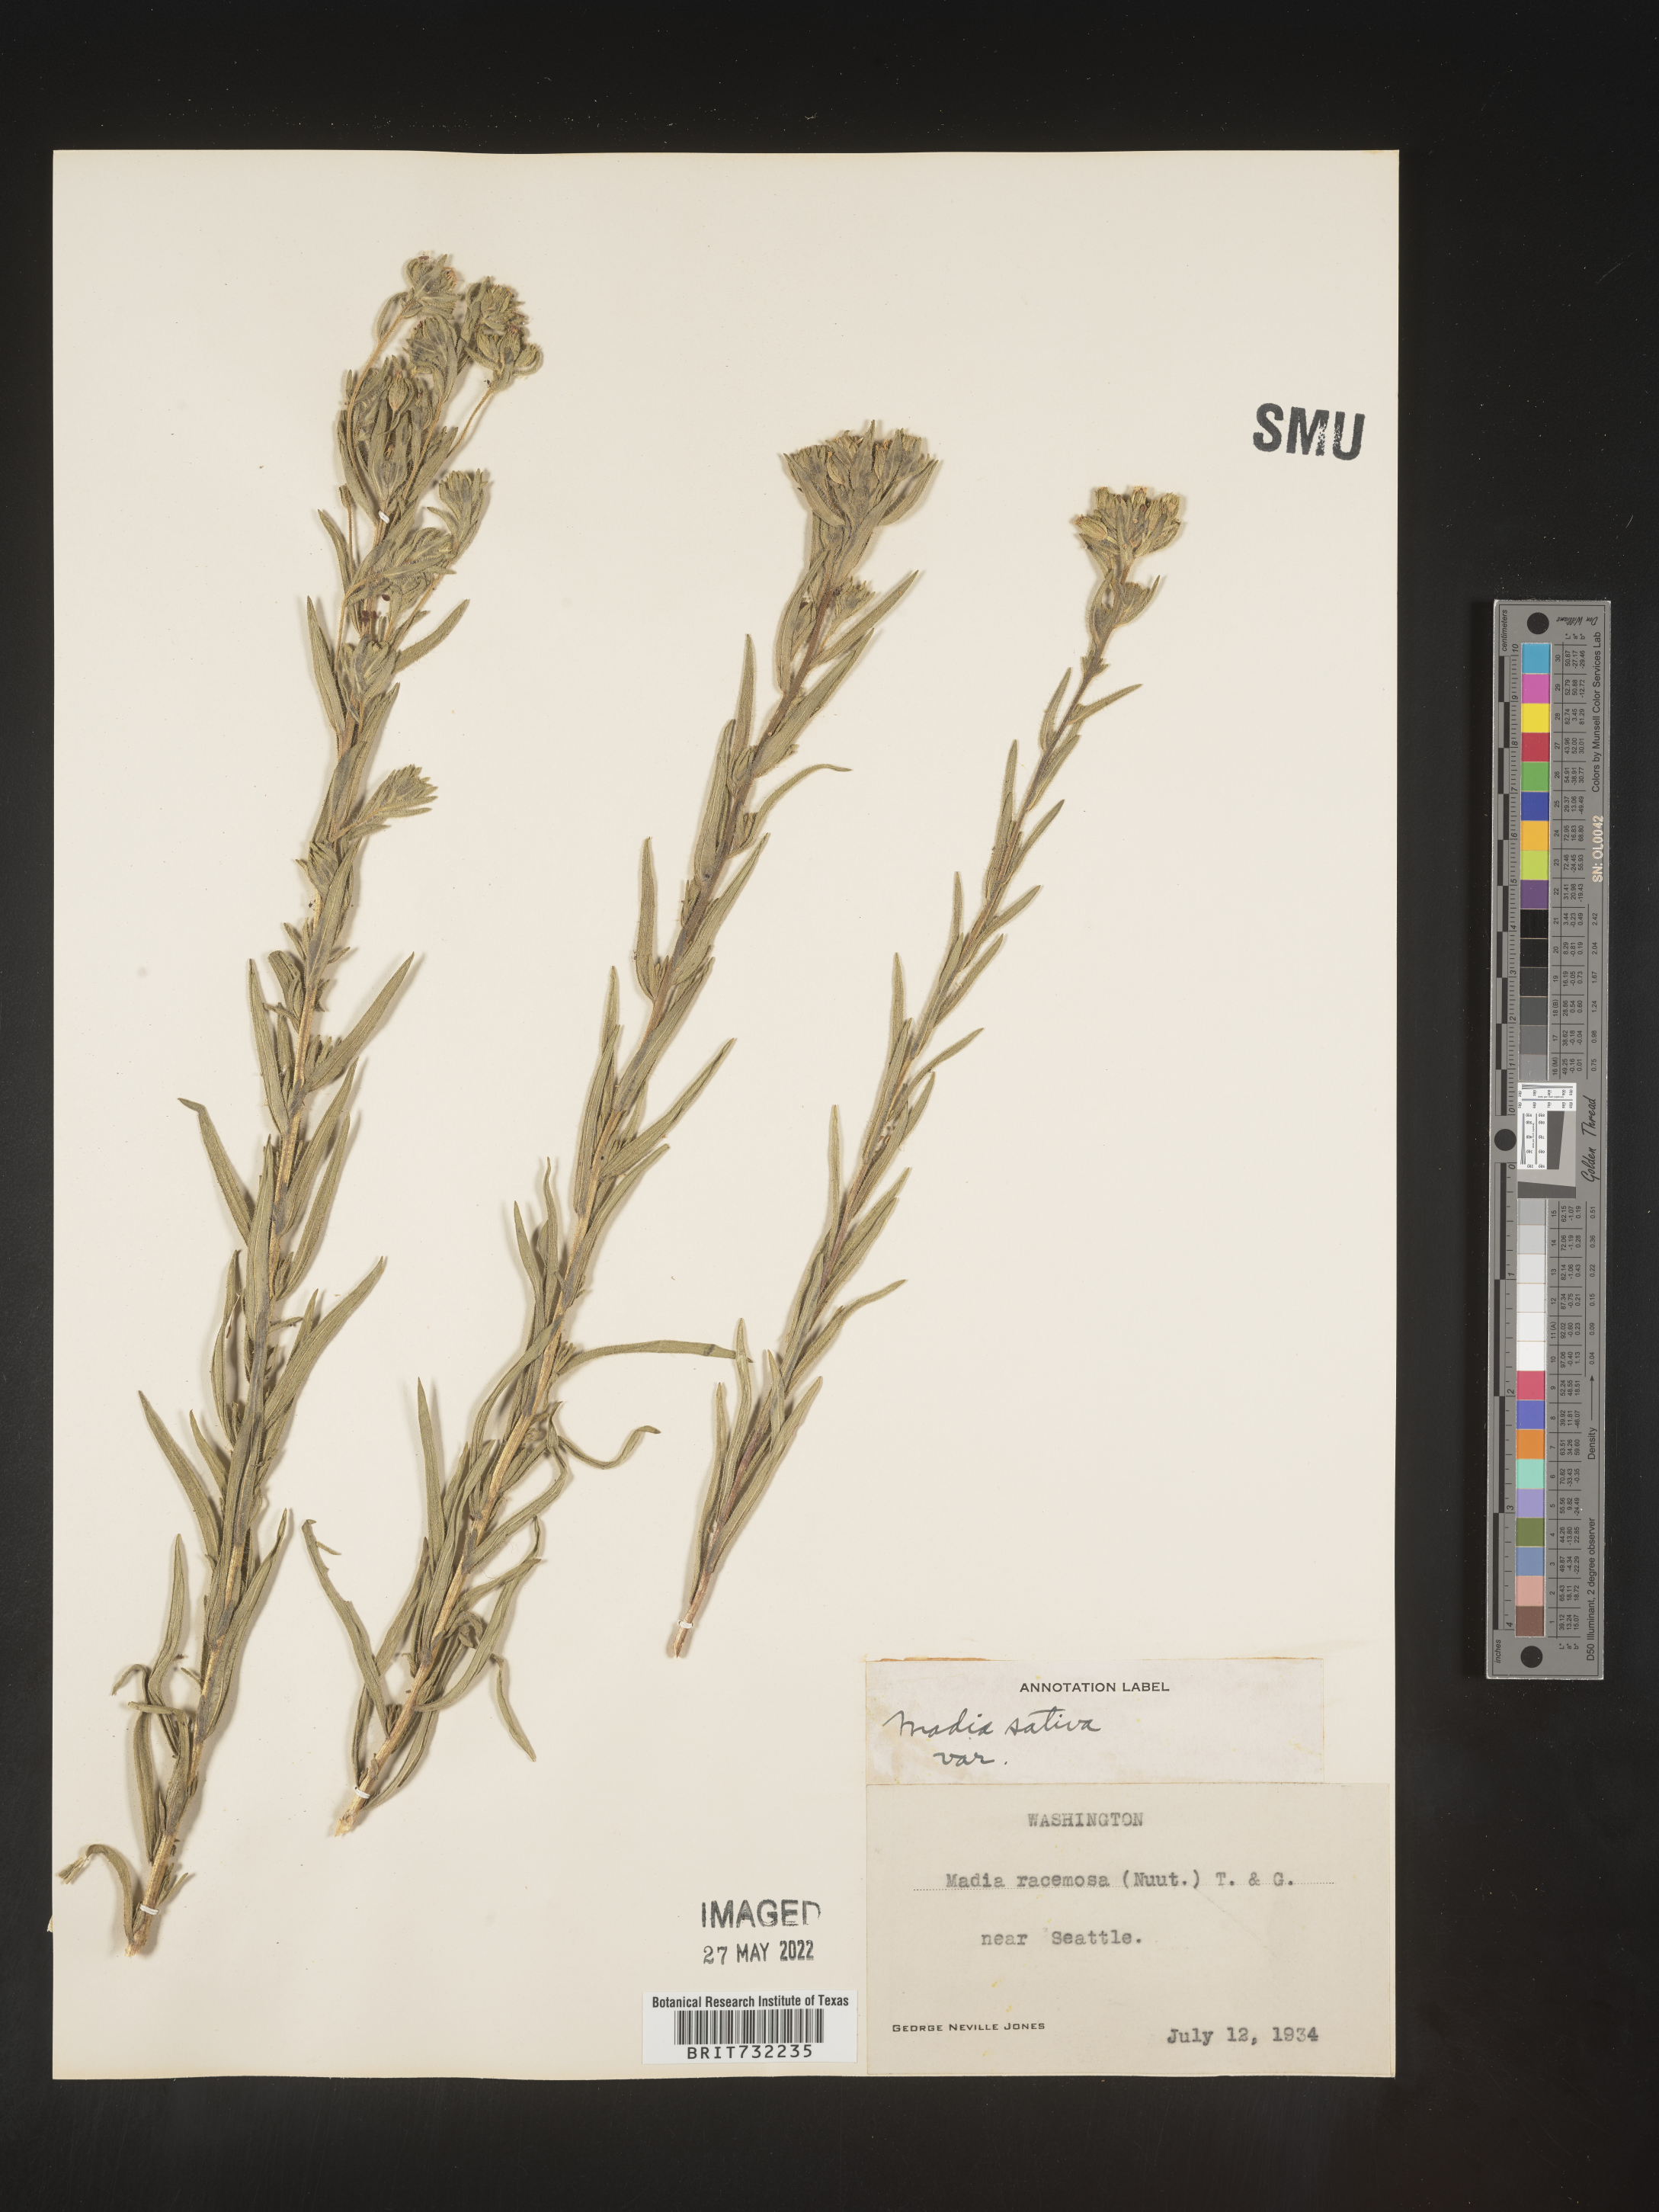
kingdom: Plantae
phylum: Tracheophyta
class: Magnoliopsida
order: Asterales
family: Asteraceae
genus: Madia
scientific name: Madia
